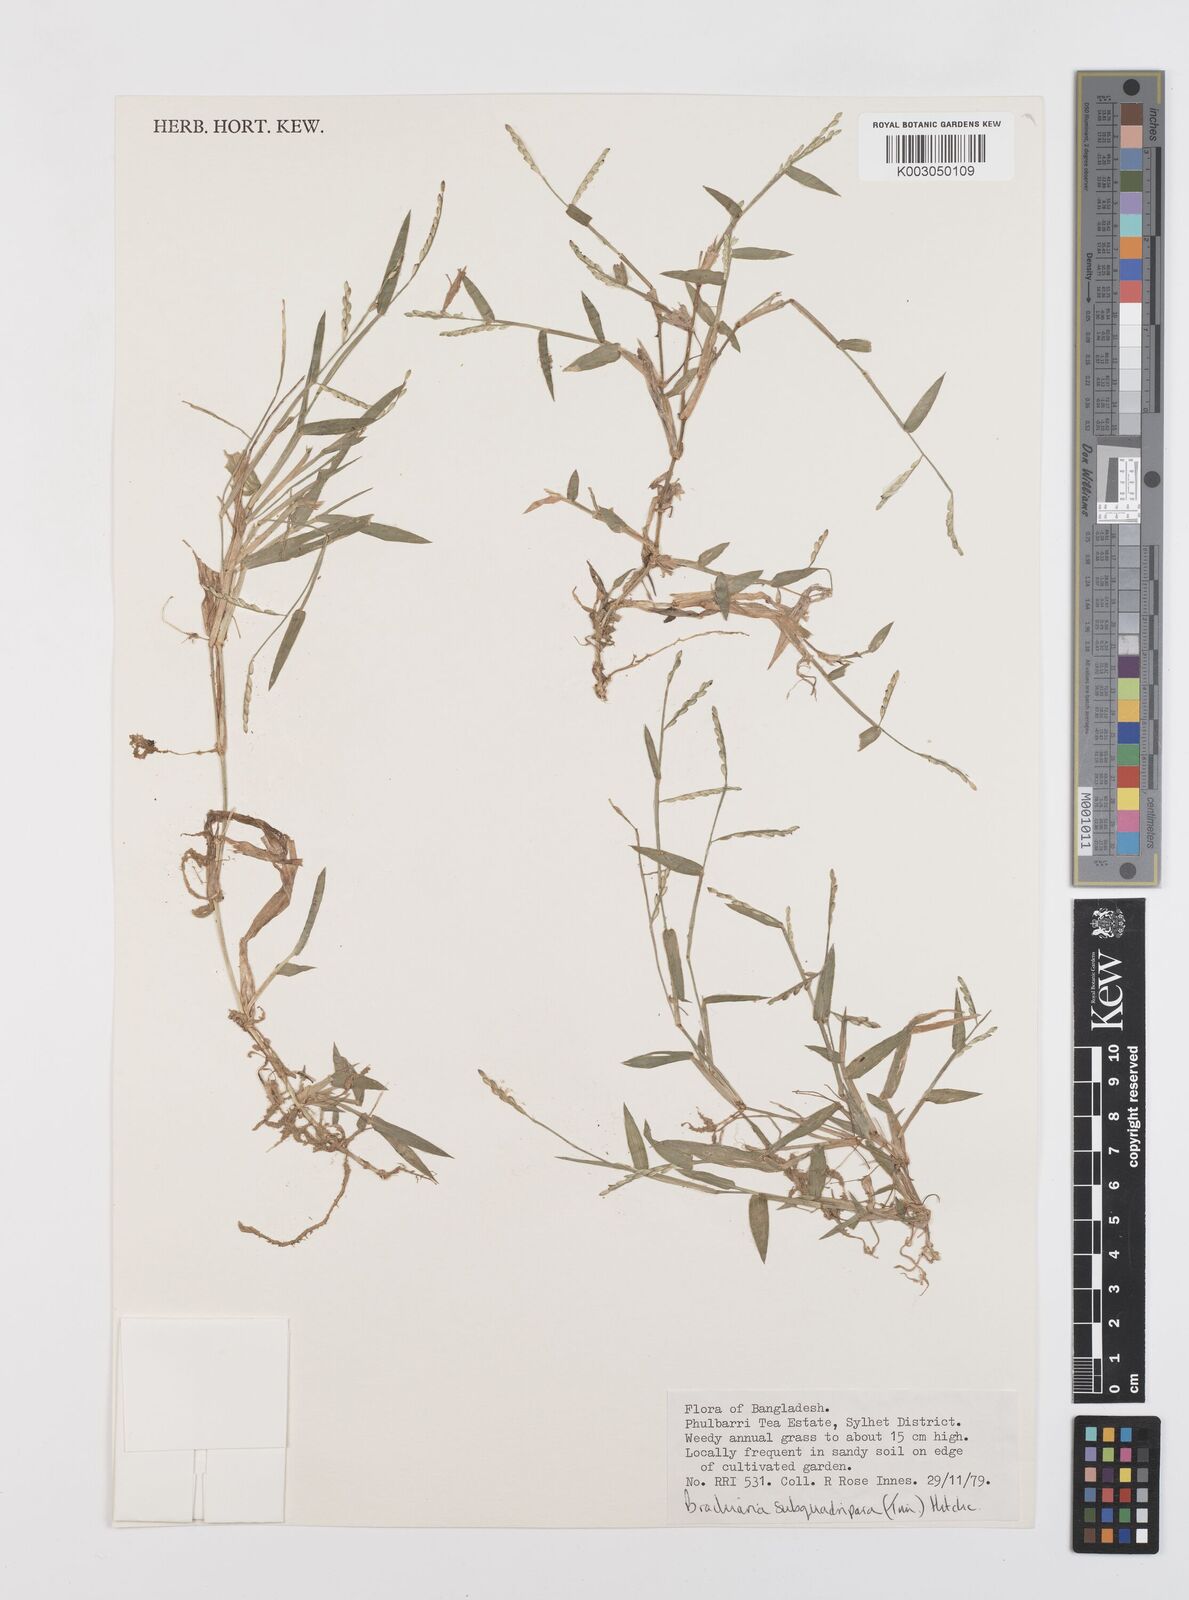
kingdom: Plantae
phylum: Tracheophyta
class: Liliopsida
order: Poales
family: Poaceae
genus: Urochloa
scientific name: Urochloa subquadripara
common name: Armgrass millet
